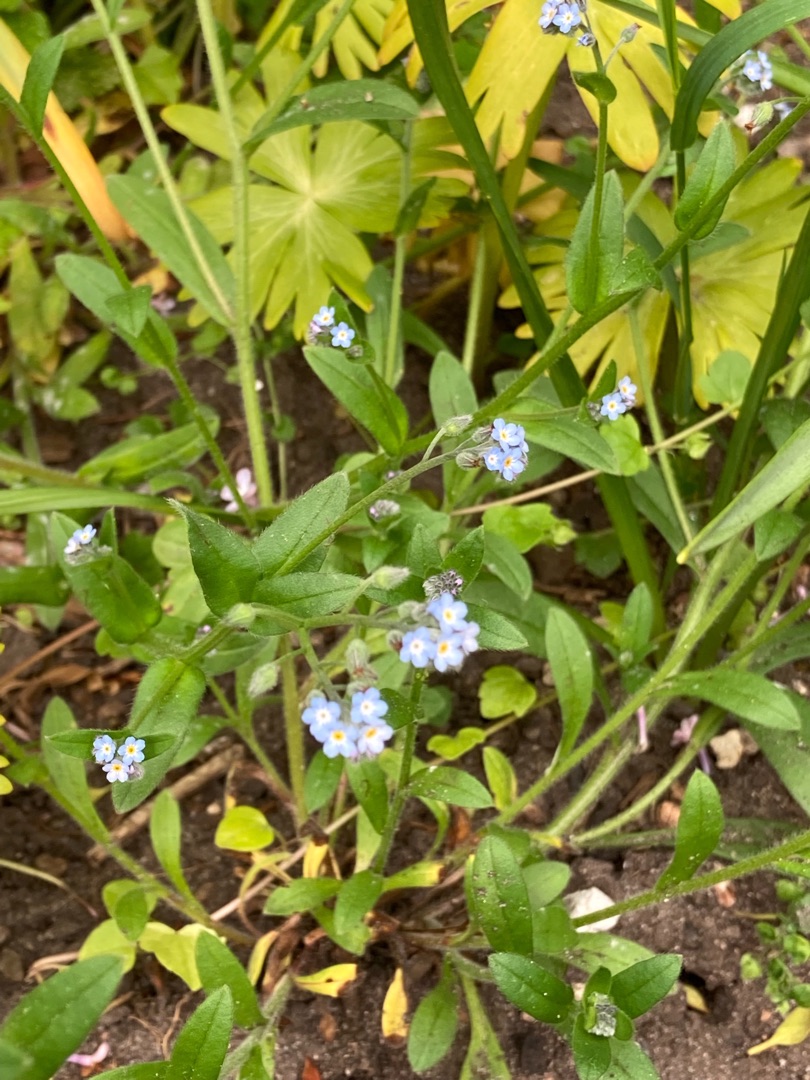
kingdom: Plantae
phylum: Tracheophyta
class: Magnoliopsida
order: Boraginales
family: Boraginaceae
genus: Myosotis
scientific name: Myosotis arvensis
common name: Mark-forglemmigej
